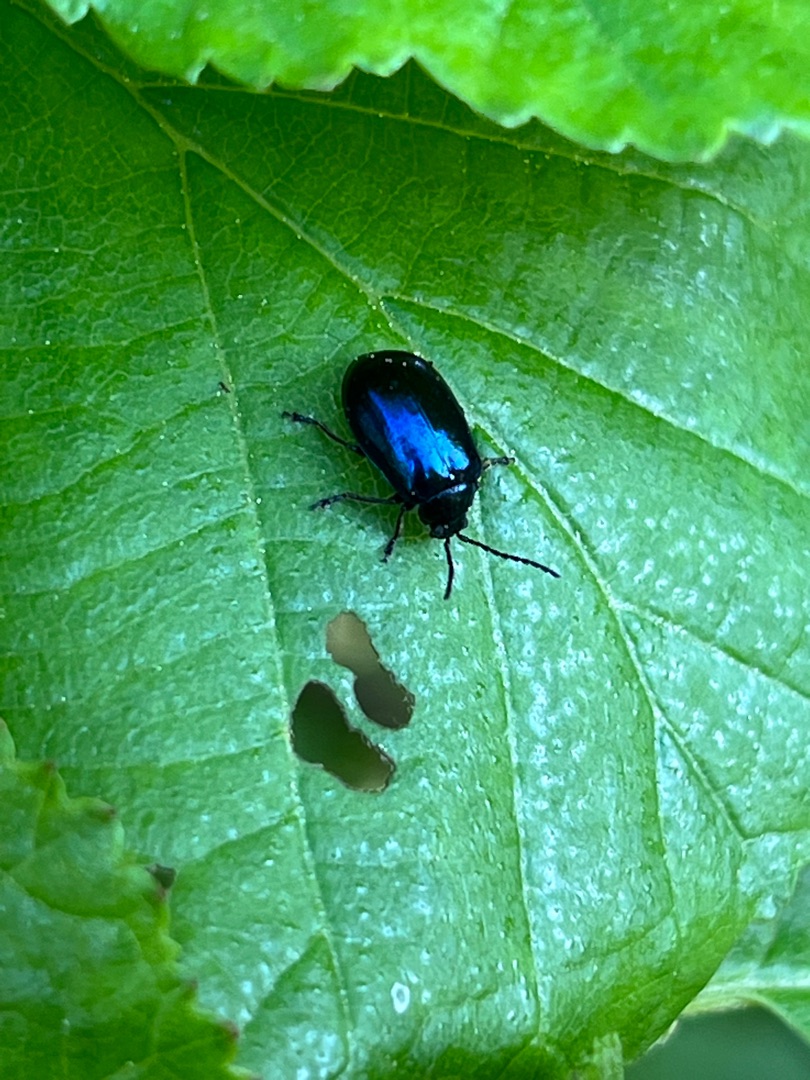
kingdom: Animalia
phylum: Arthropoda
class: Insecta
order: Coleoptera
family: Chrysomelidae
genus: Agelastica
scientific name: Agelastica alni
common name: Ellebladbille
